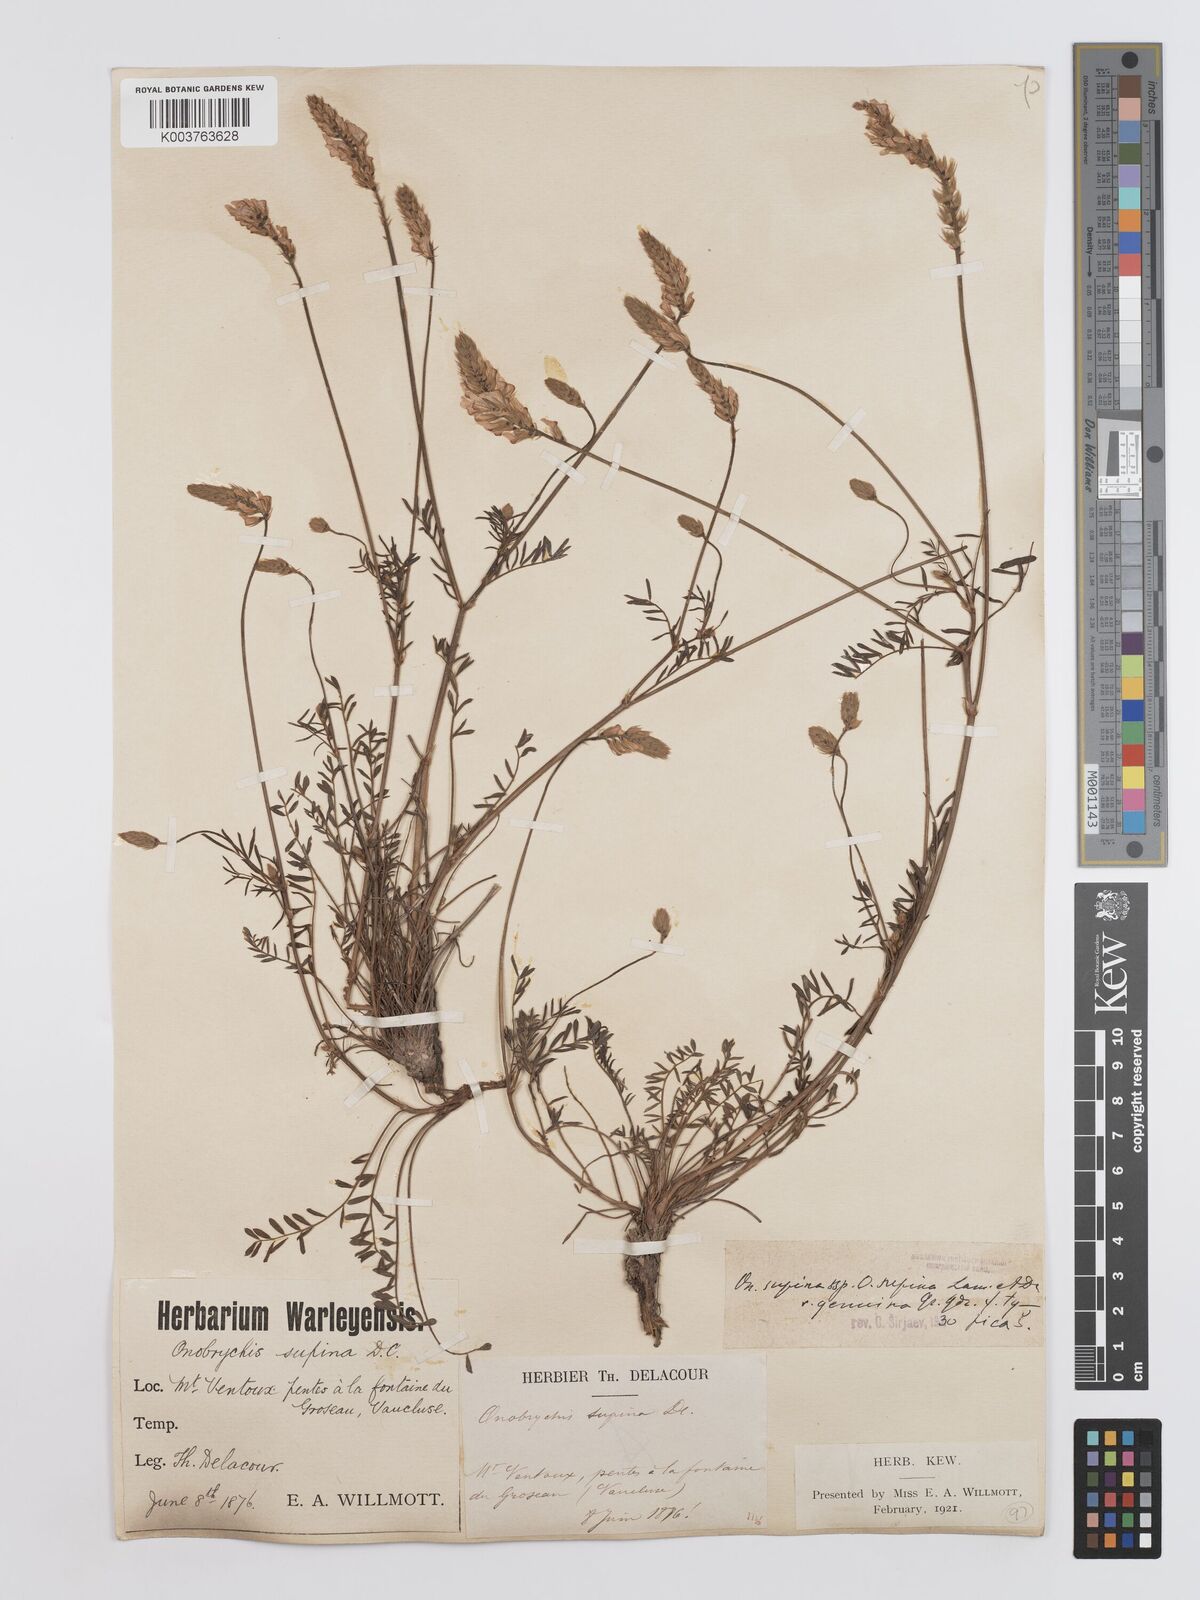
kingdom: Plantae
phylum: Tracheophyta
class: Magnoliopsida
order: Fabales
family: Fabaceae
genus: Onobrychis
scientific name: Onobrychis supina
